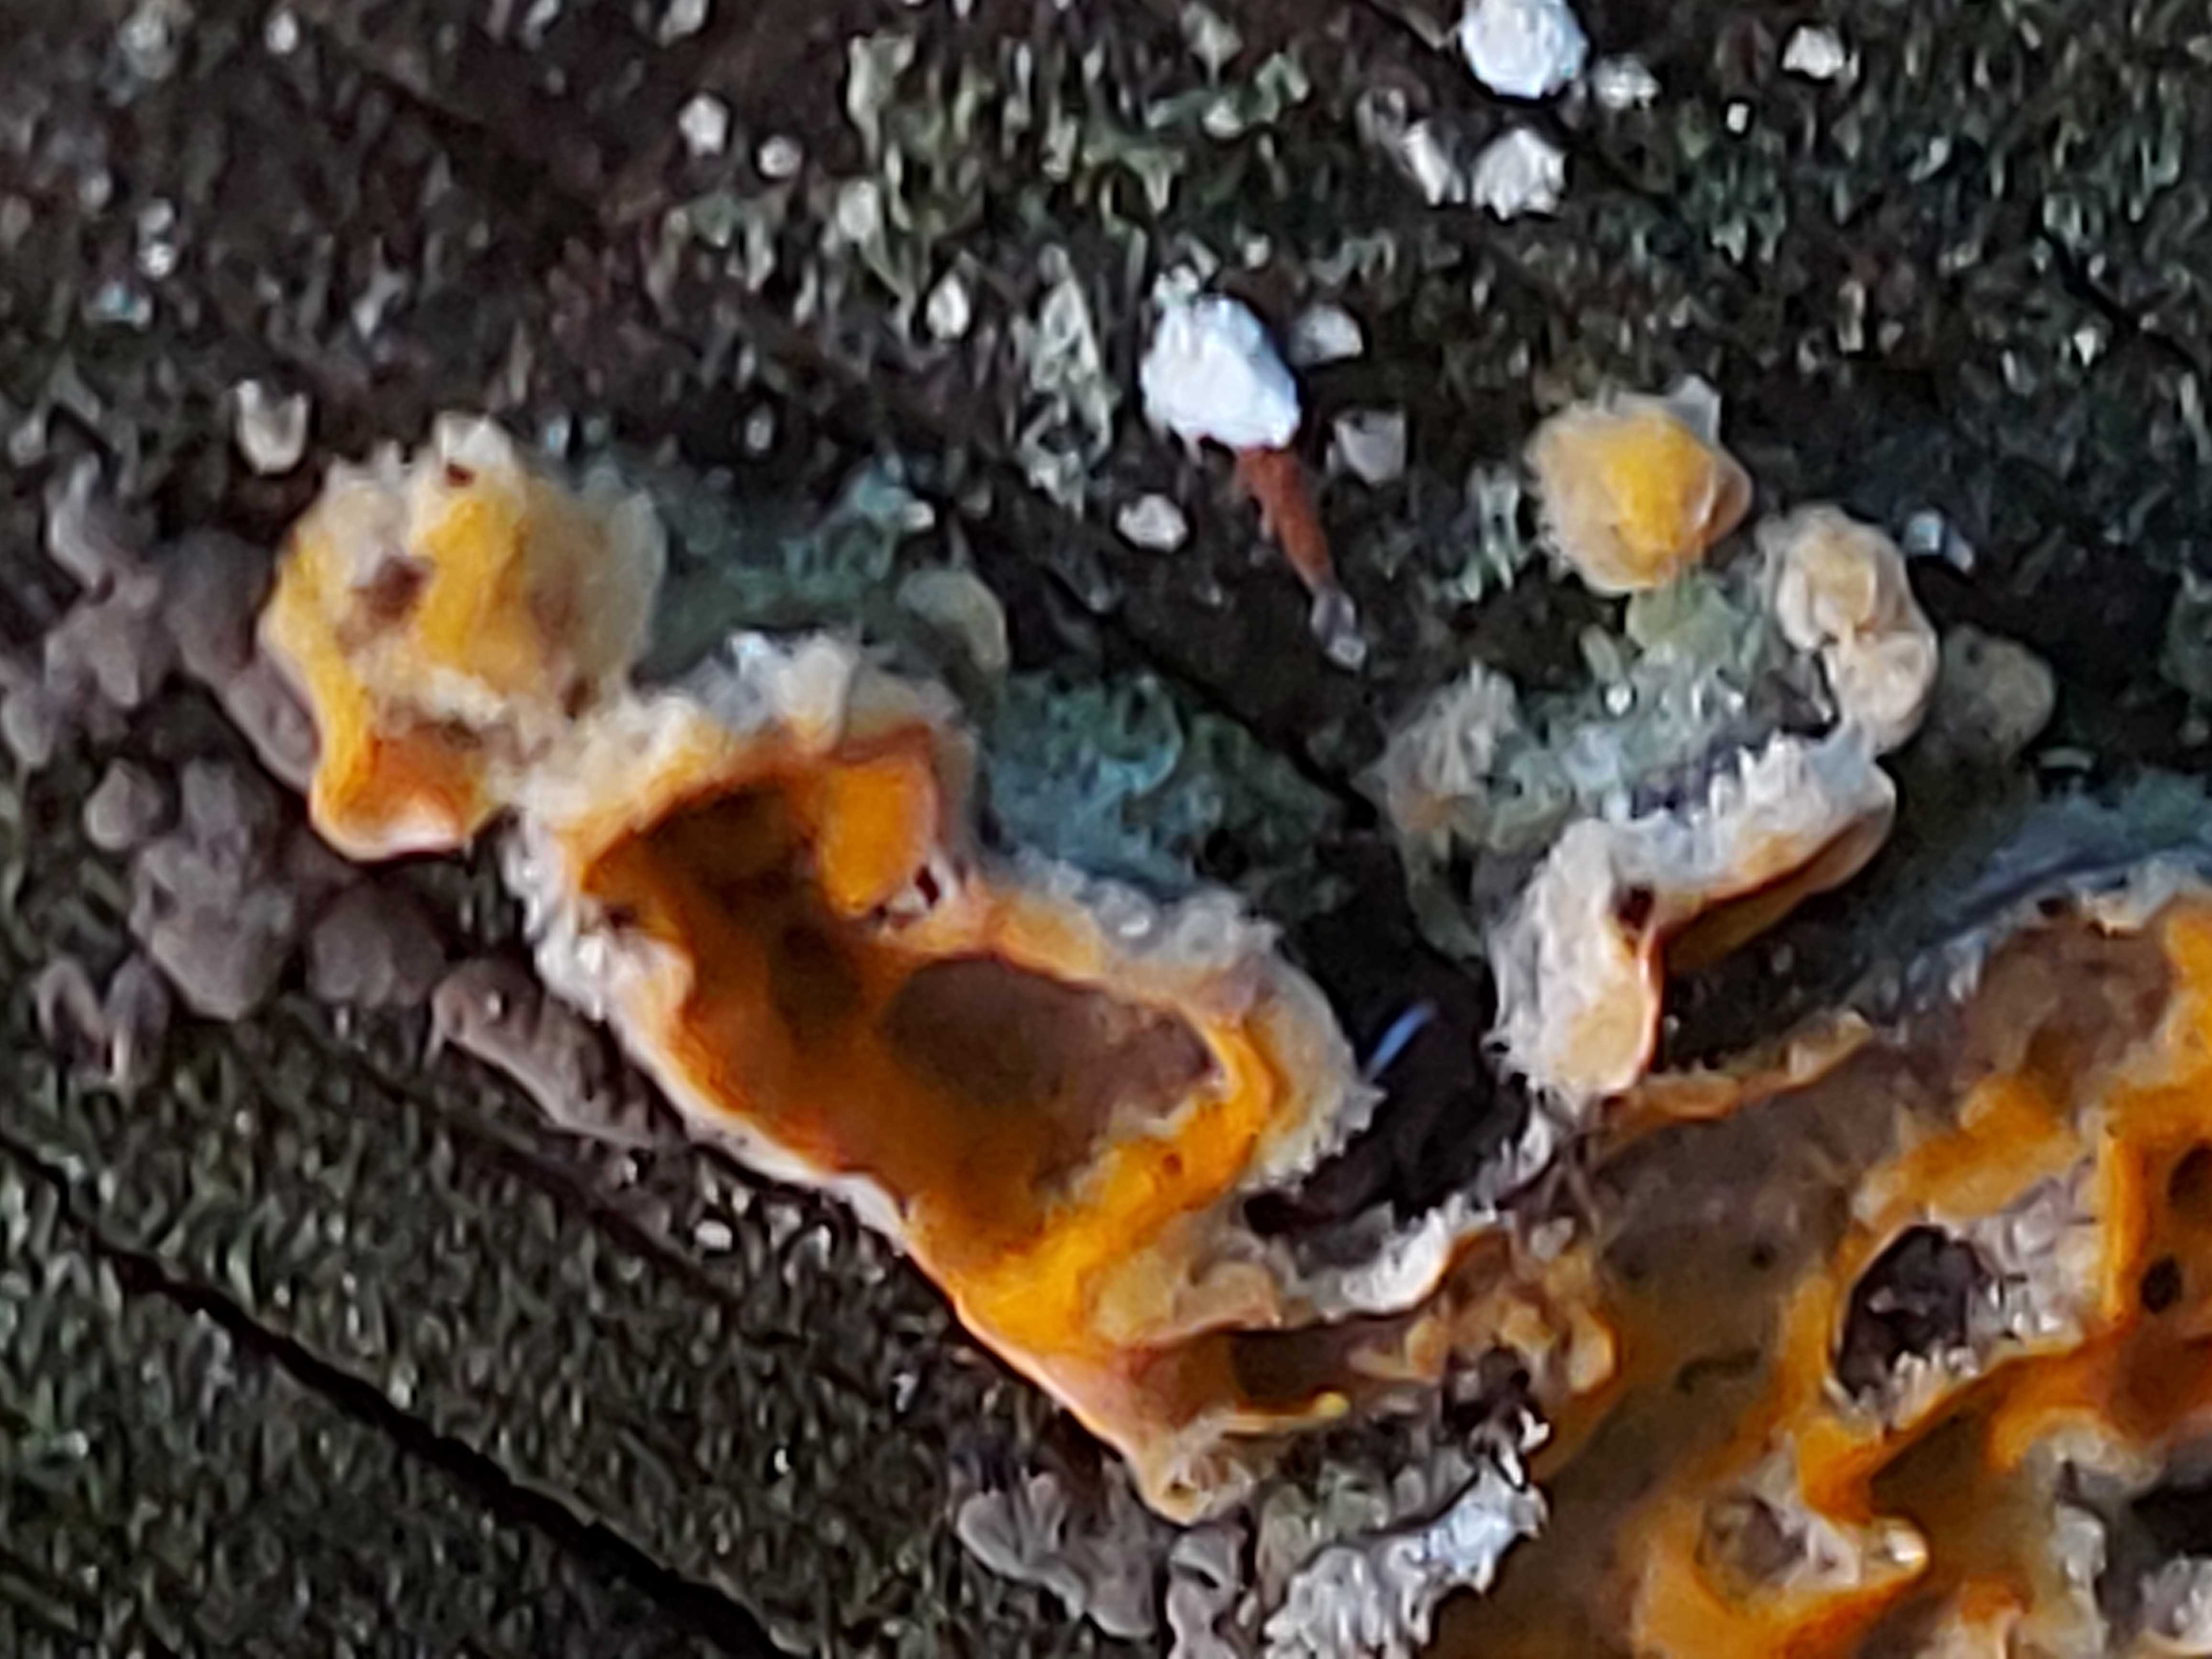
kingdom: Fungi
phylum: Basidiomycota
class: Agaricomycetes
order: Russulales
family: Stereaceae
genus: Stereum
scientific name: Stereum hirsutum
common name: håret lædersvamp
